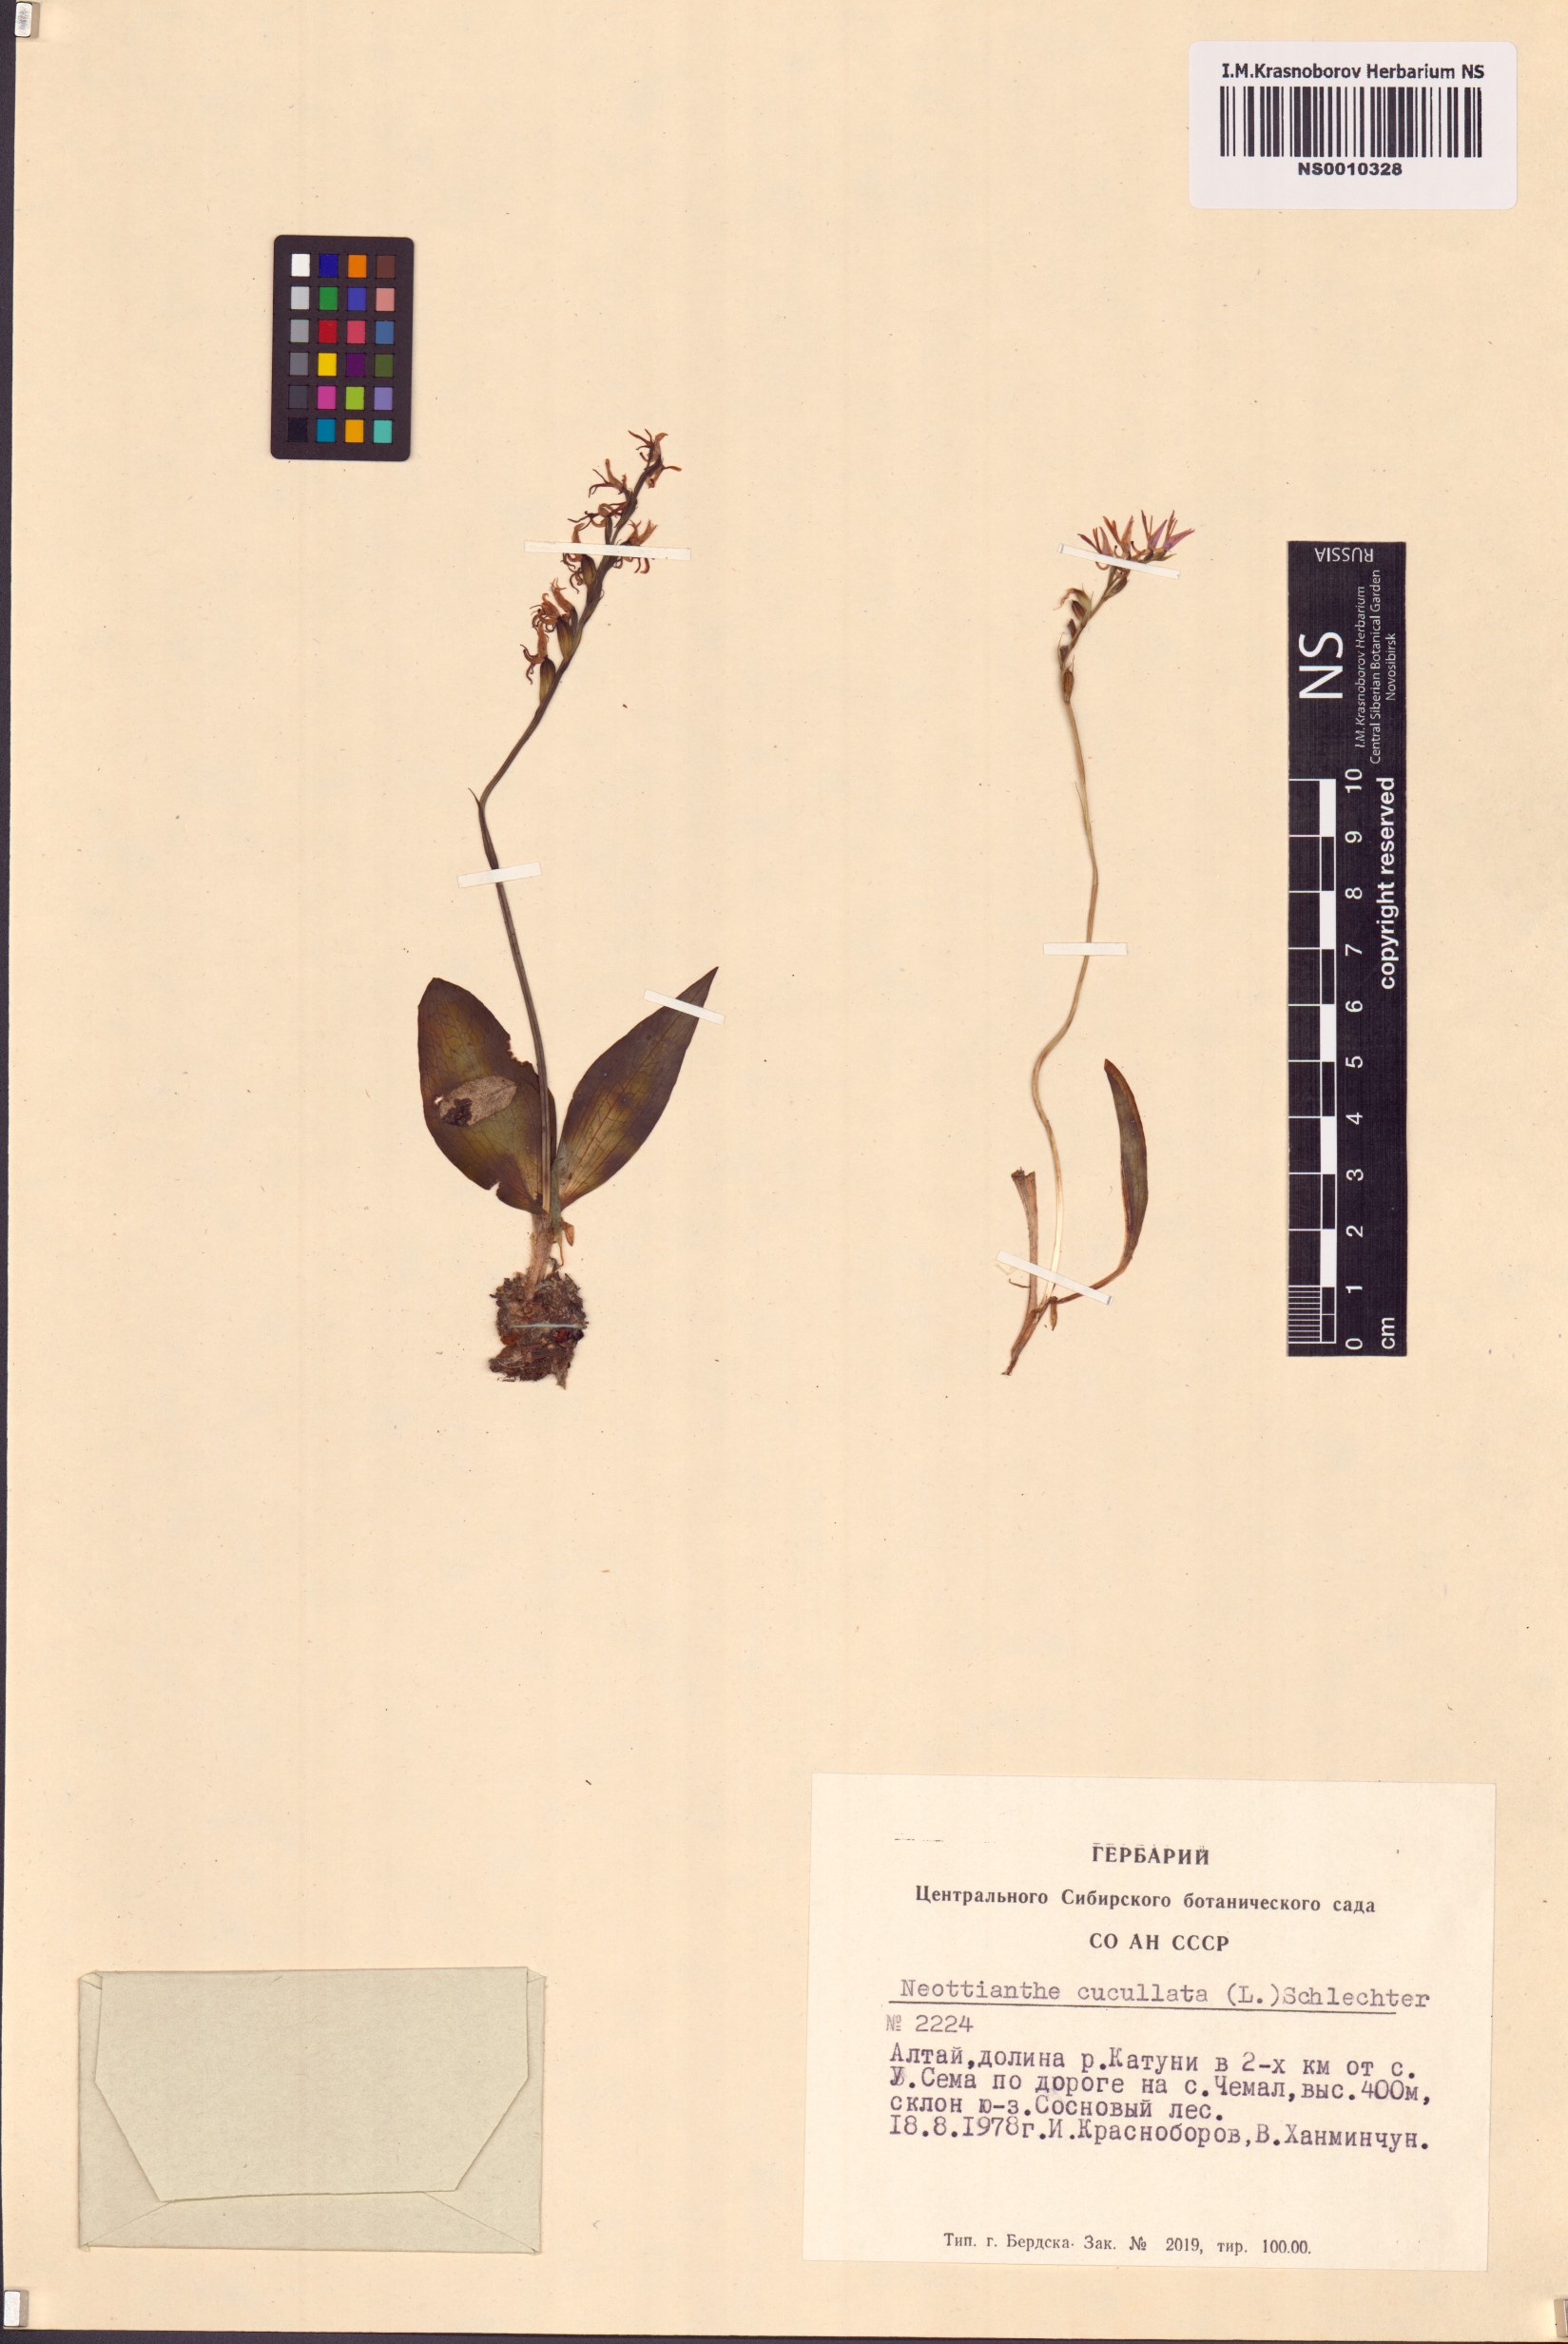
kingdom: Plantae
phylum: Tracheophyta
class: Liliopsida
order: Asparagales
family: Orchidaceae
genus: Hemipilia
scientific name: Hemipilia cucullata
